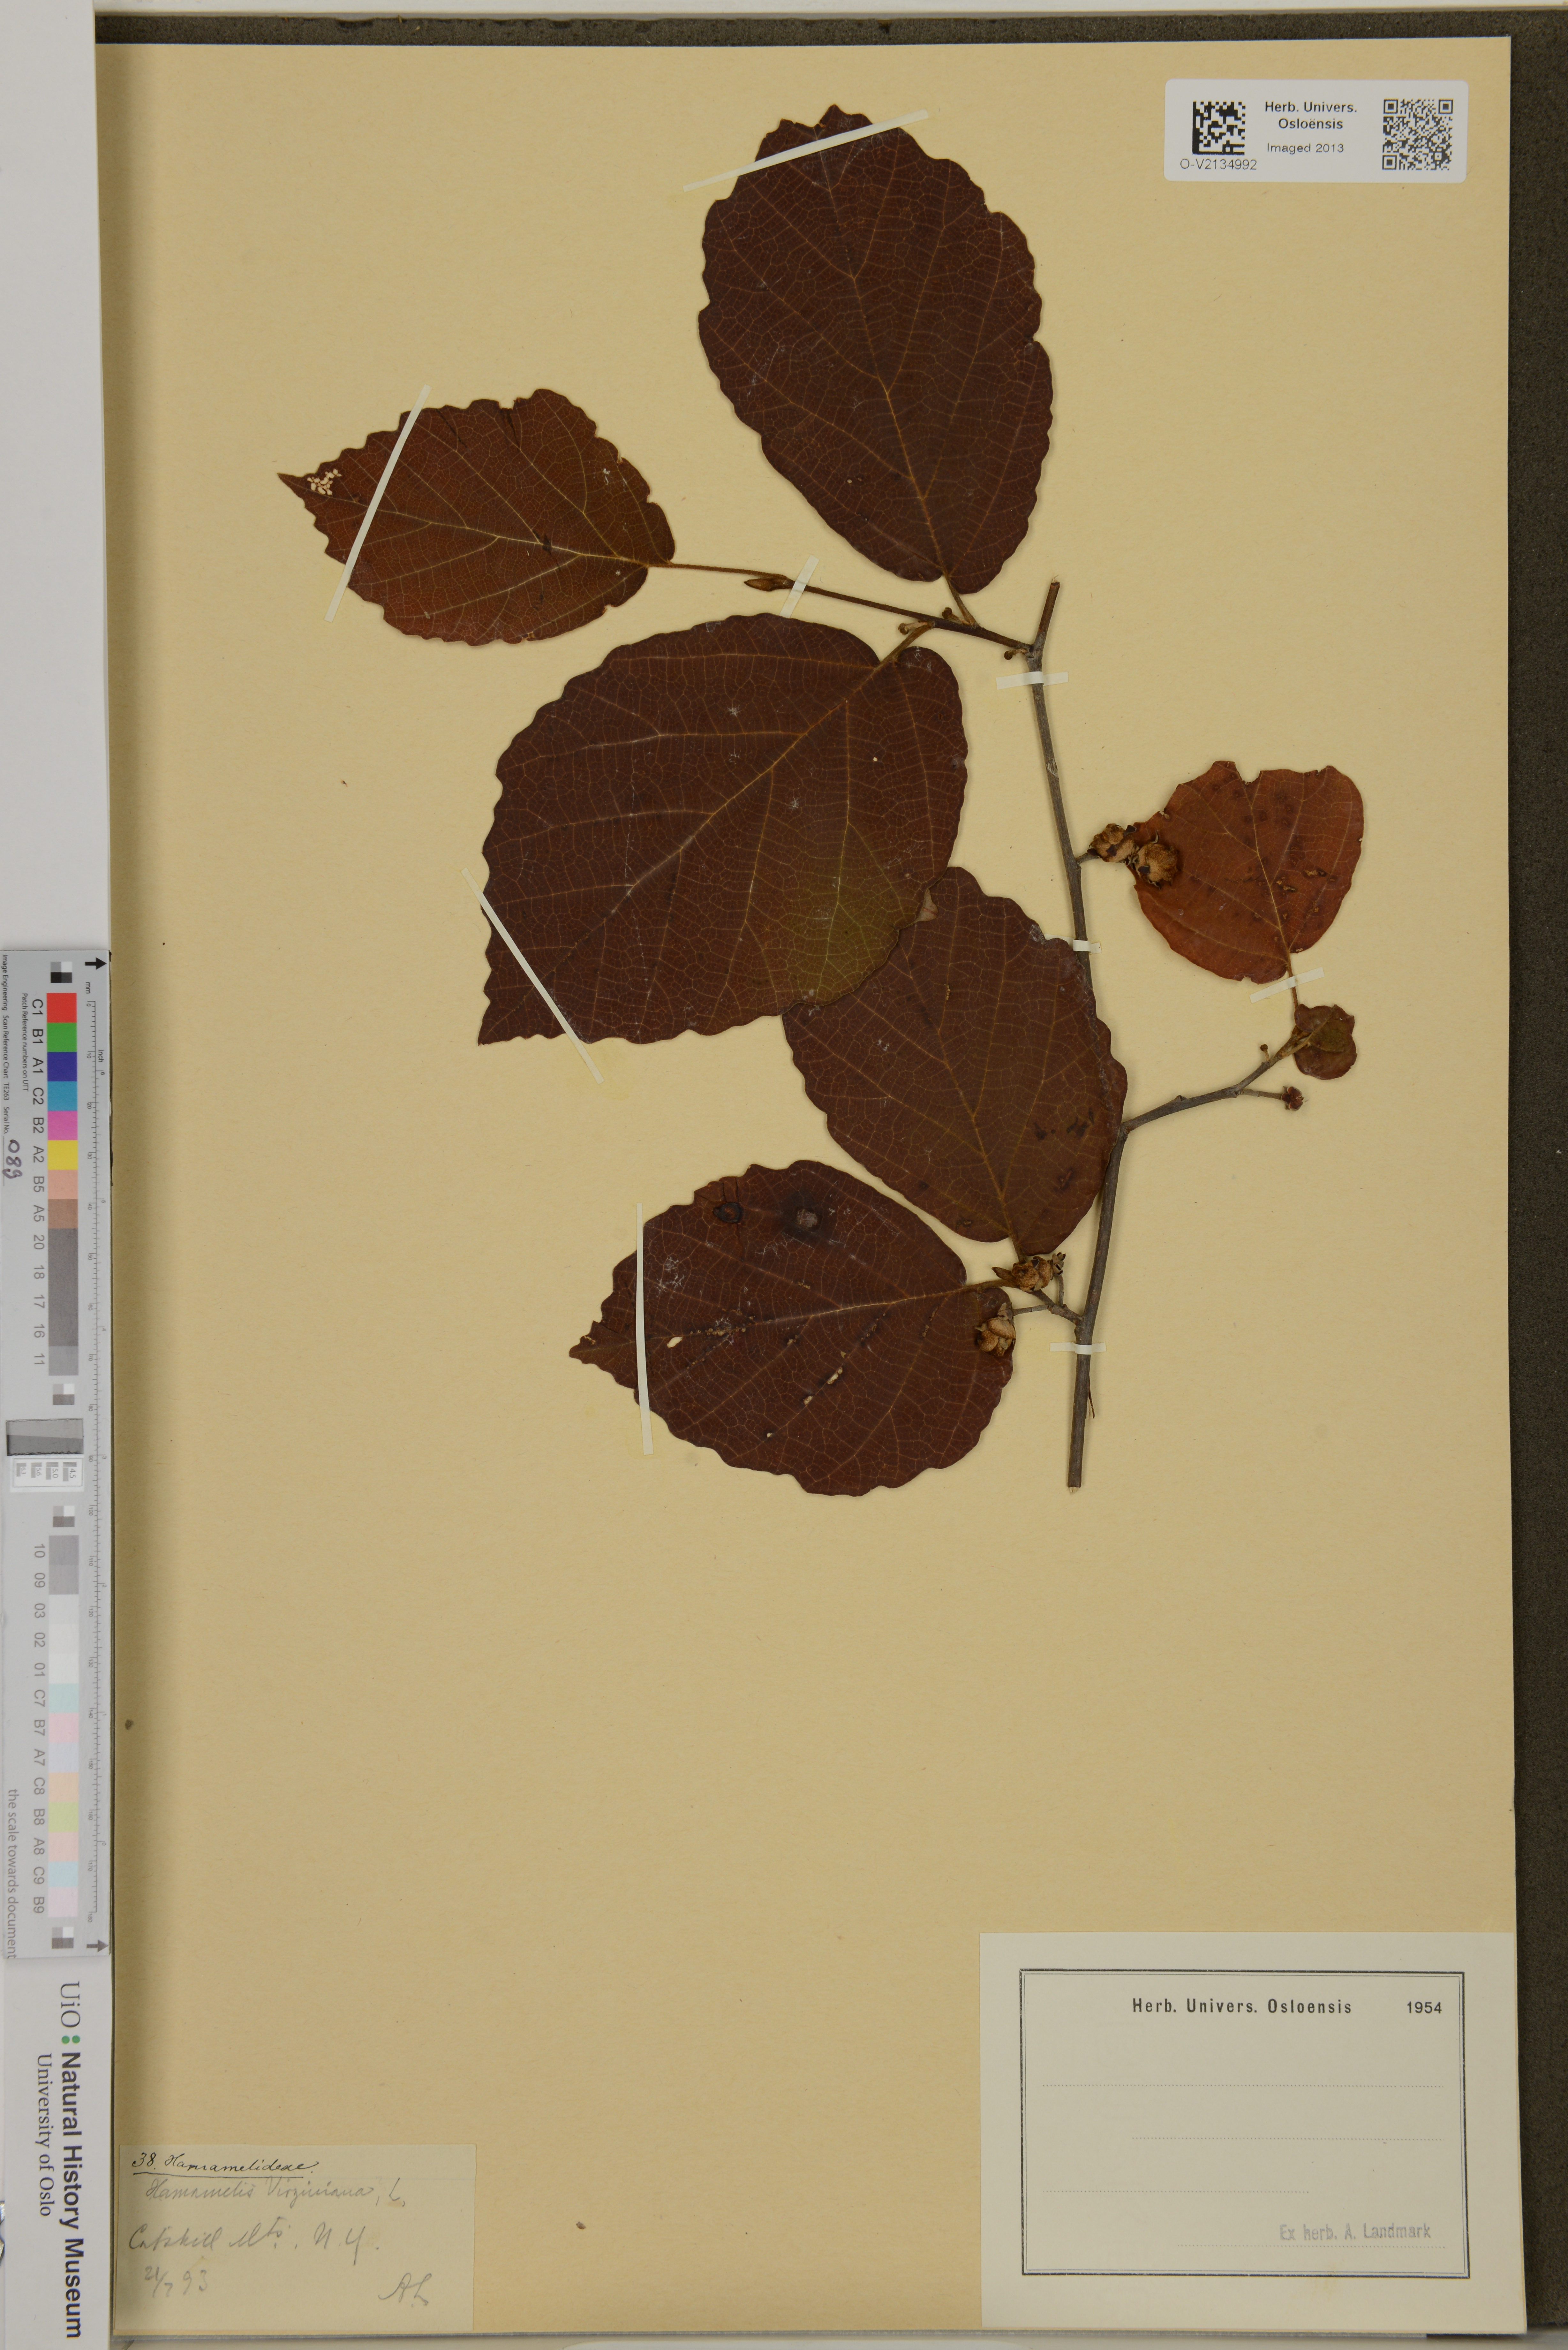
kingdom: Plantae
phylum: Tracheophyta
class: Magnoliopsida
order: Saxifragales
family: Hamamelidaceae
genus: Hamamelis
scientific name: Hamamelis virginiana
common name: Witch-hazel
